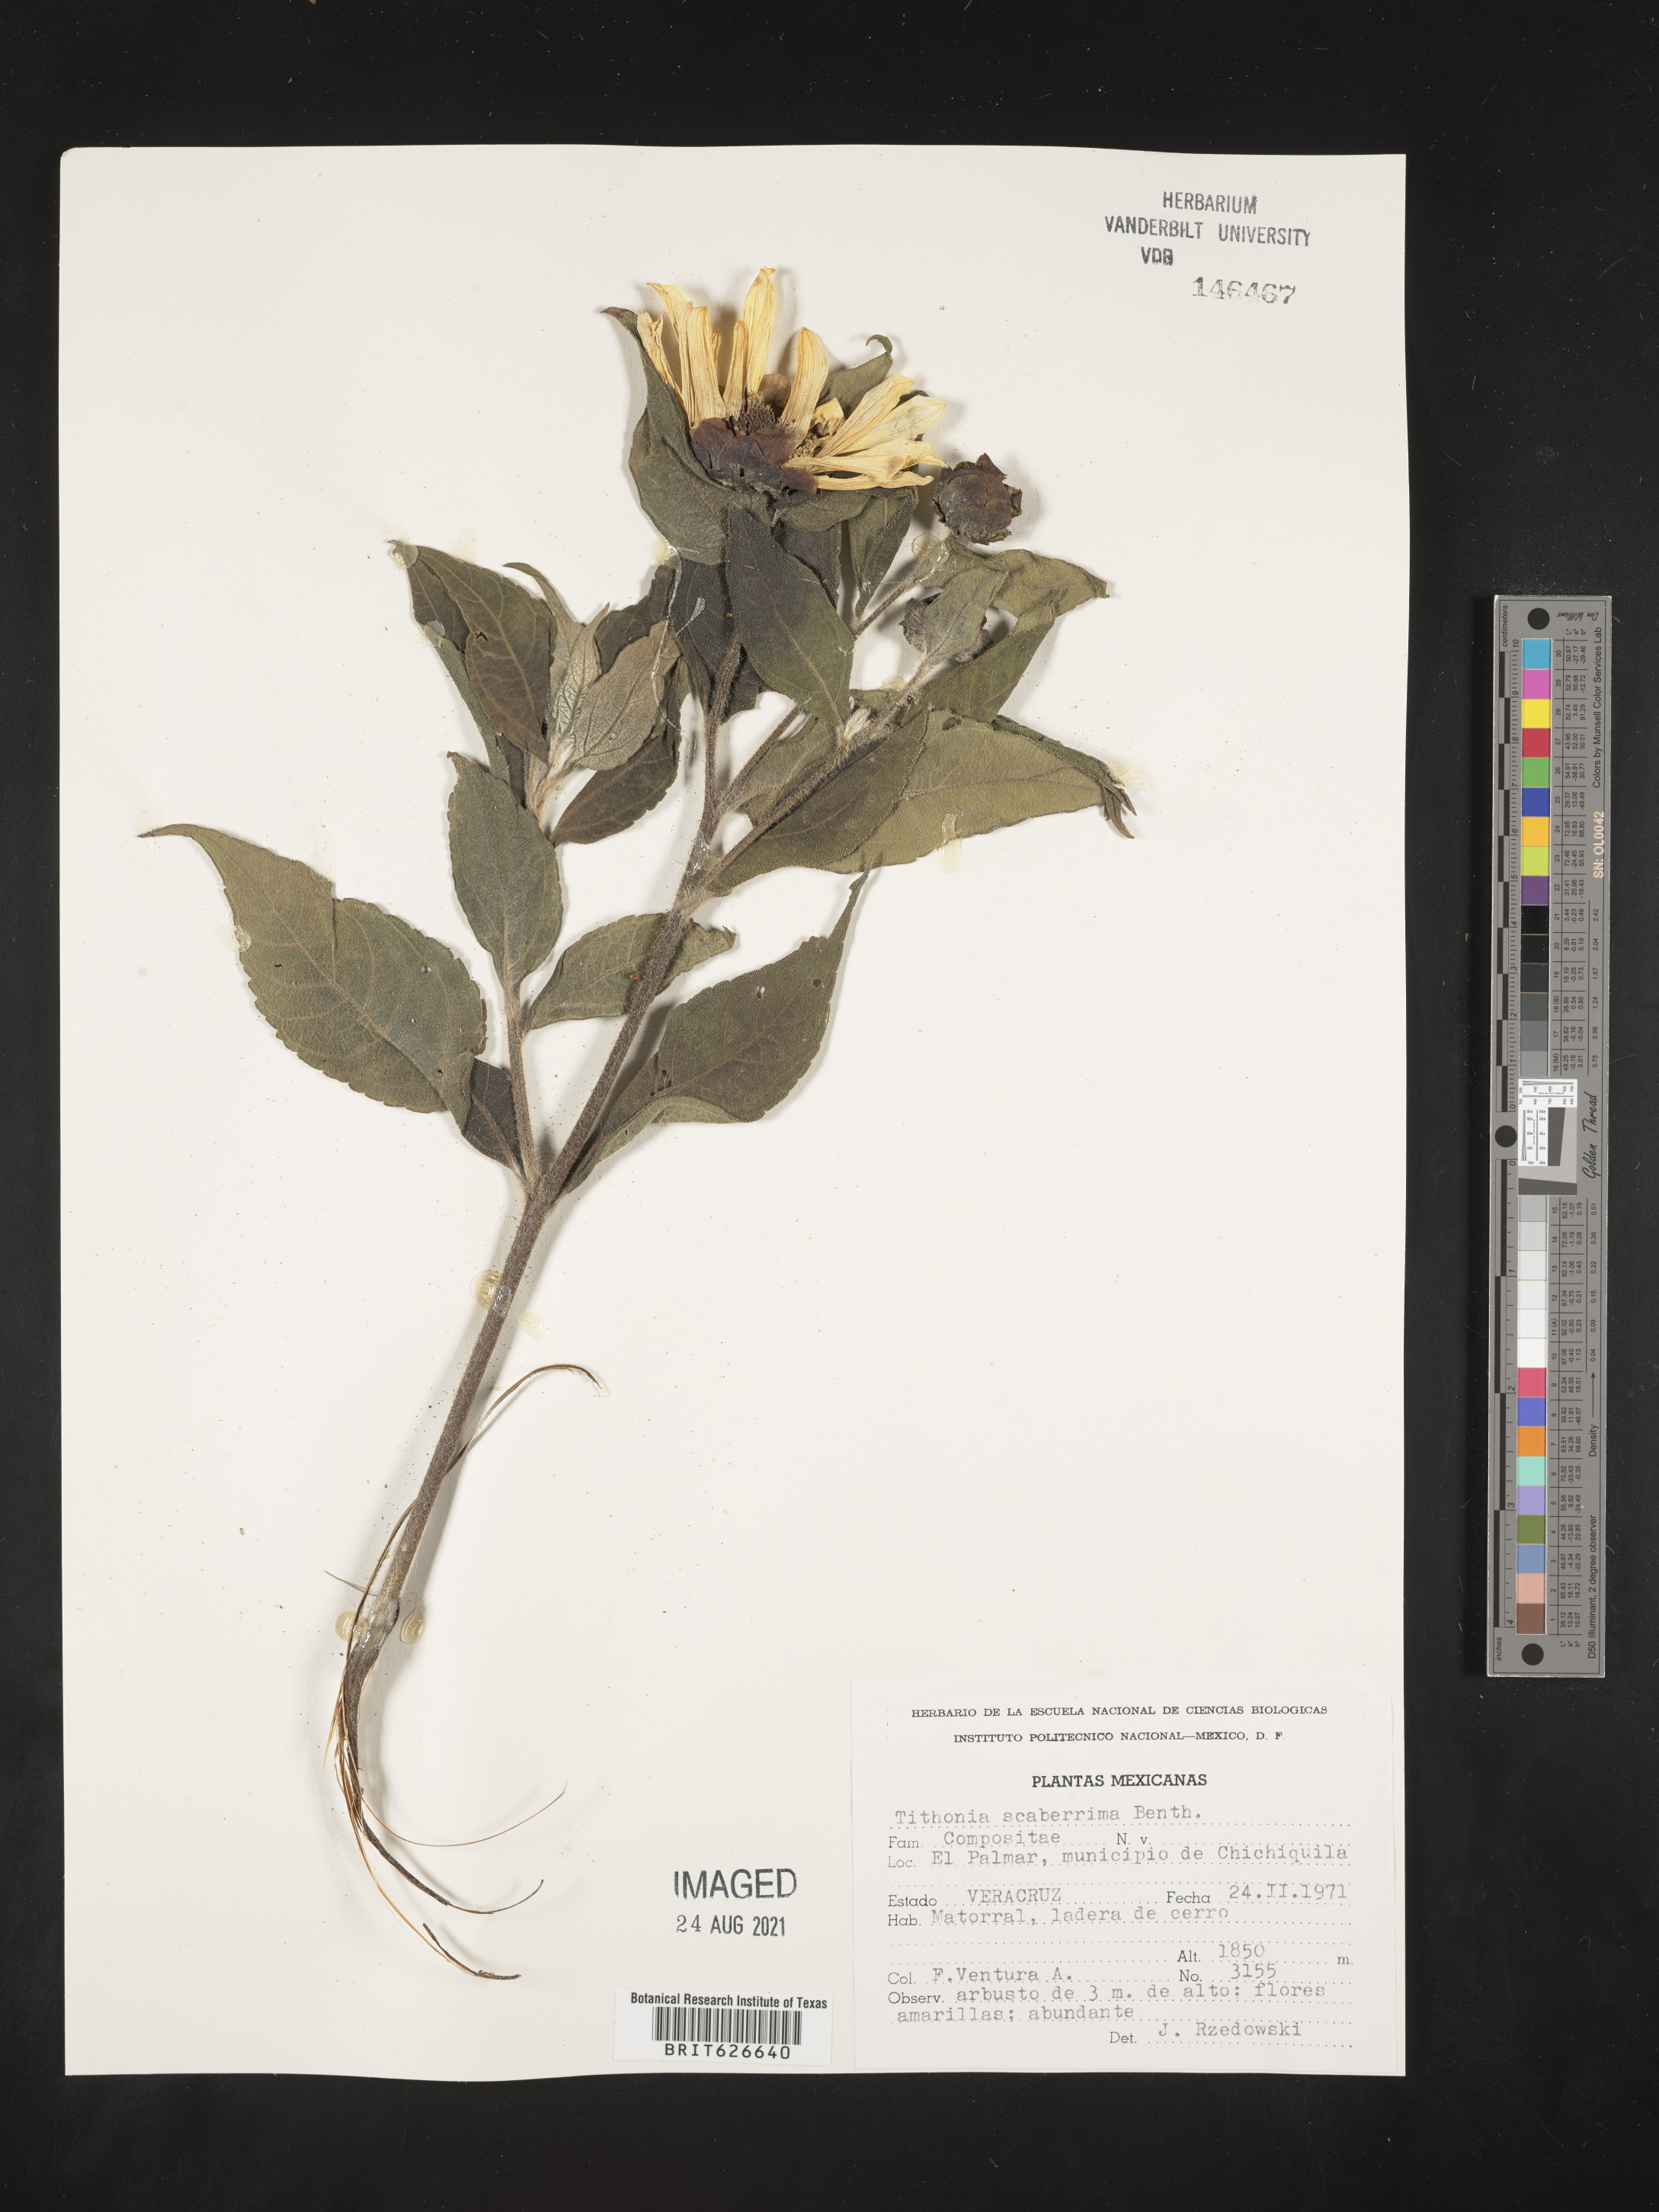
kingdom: Plantae
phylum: Tracheophyta
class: Magnoliopsida
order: Asterales
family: Asteraceae
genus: Tithonia
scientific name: Tithonia
